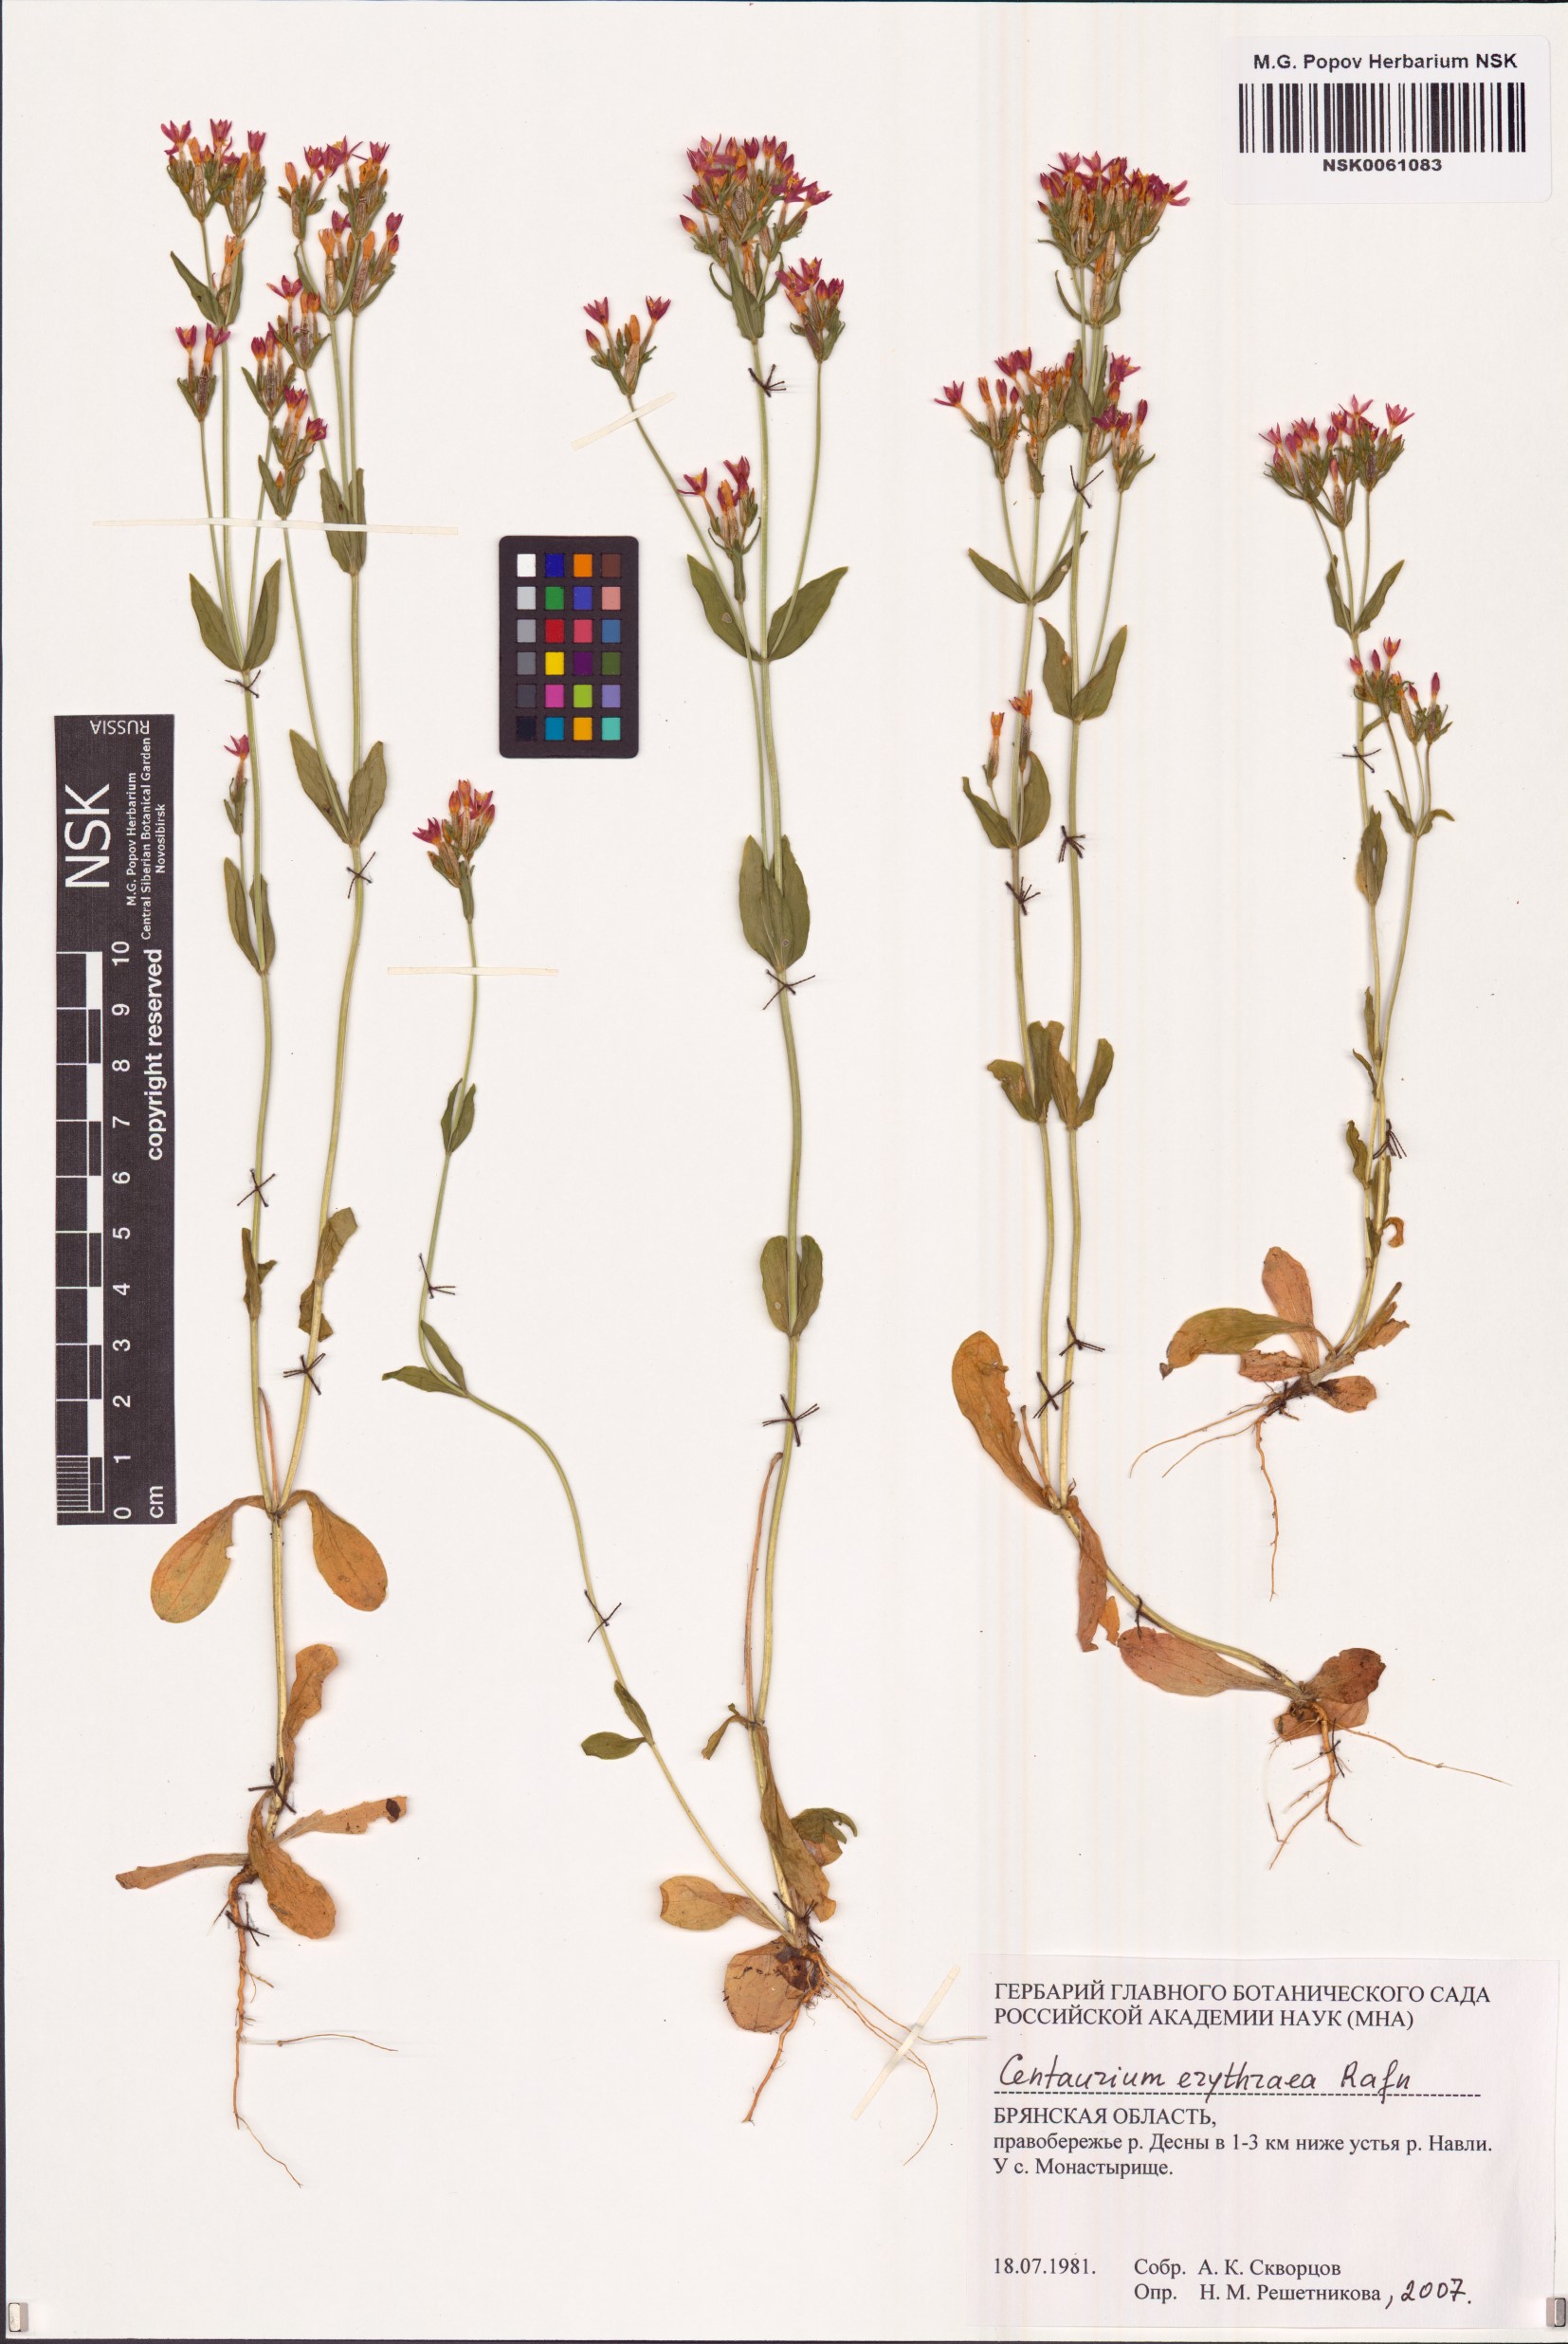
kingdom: Plantae
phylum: Tracheophyta
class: Magnoliopsida
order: Gentianales
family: Gentianaceae
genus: Centaurium
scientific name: Centaurium erythraea
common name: Common centaury
